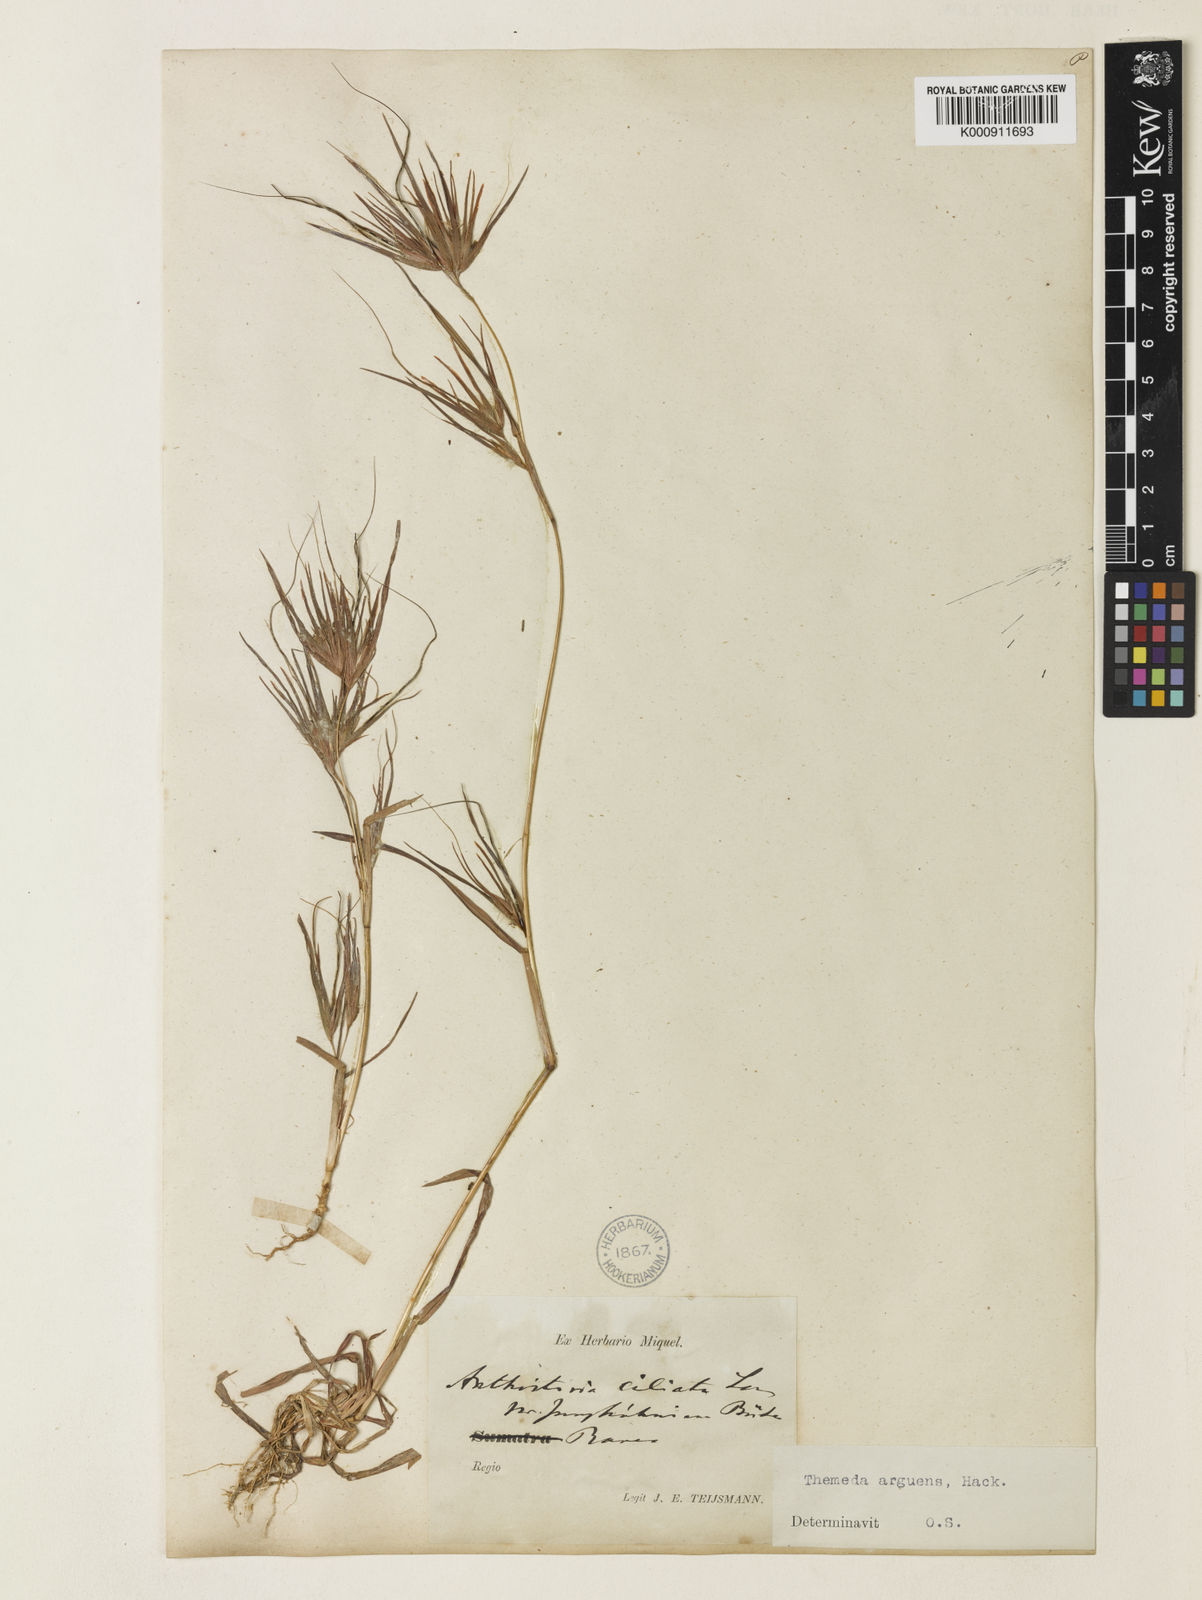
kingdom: Plantae
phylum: Tracheophyta
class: Liliopsida
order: Poales
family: Poaceae
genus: Themeda
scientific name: Themeda arguens
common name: Christmas grass
